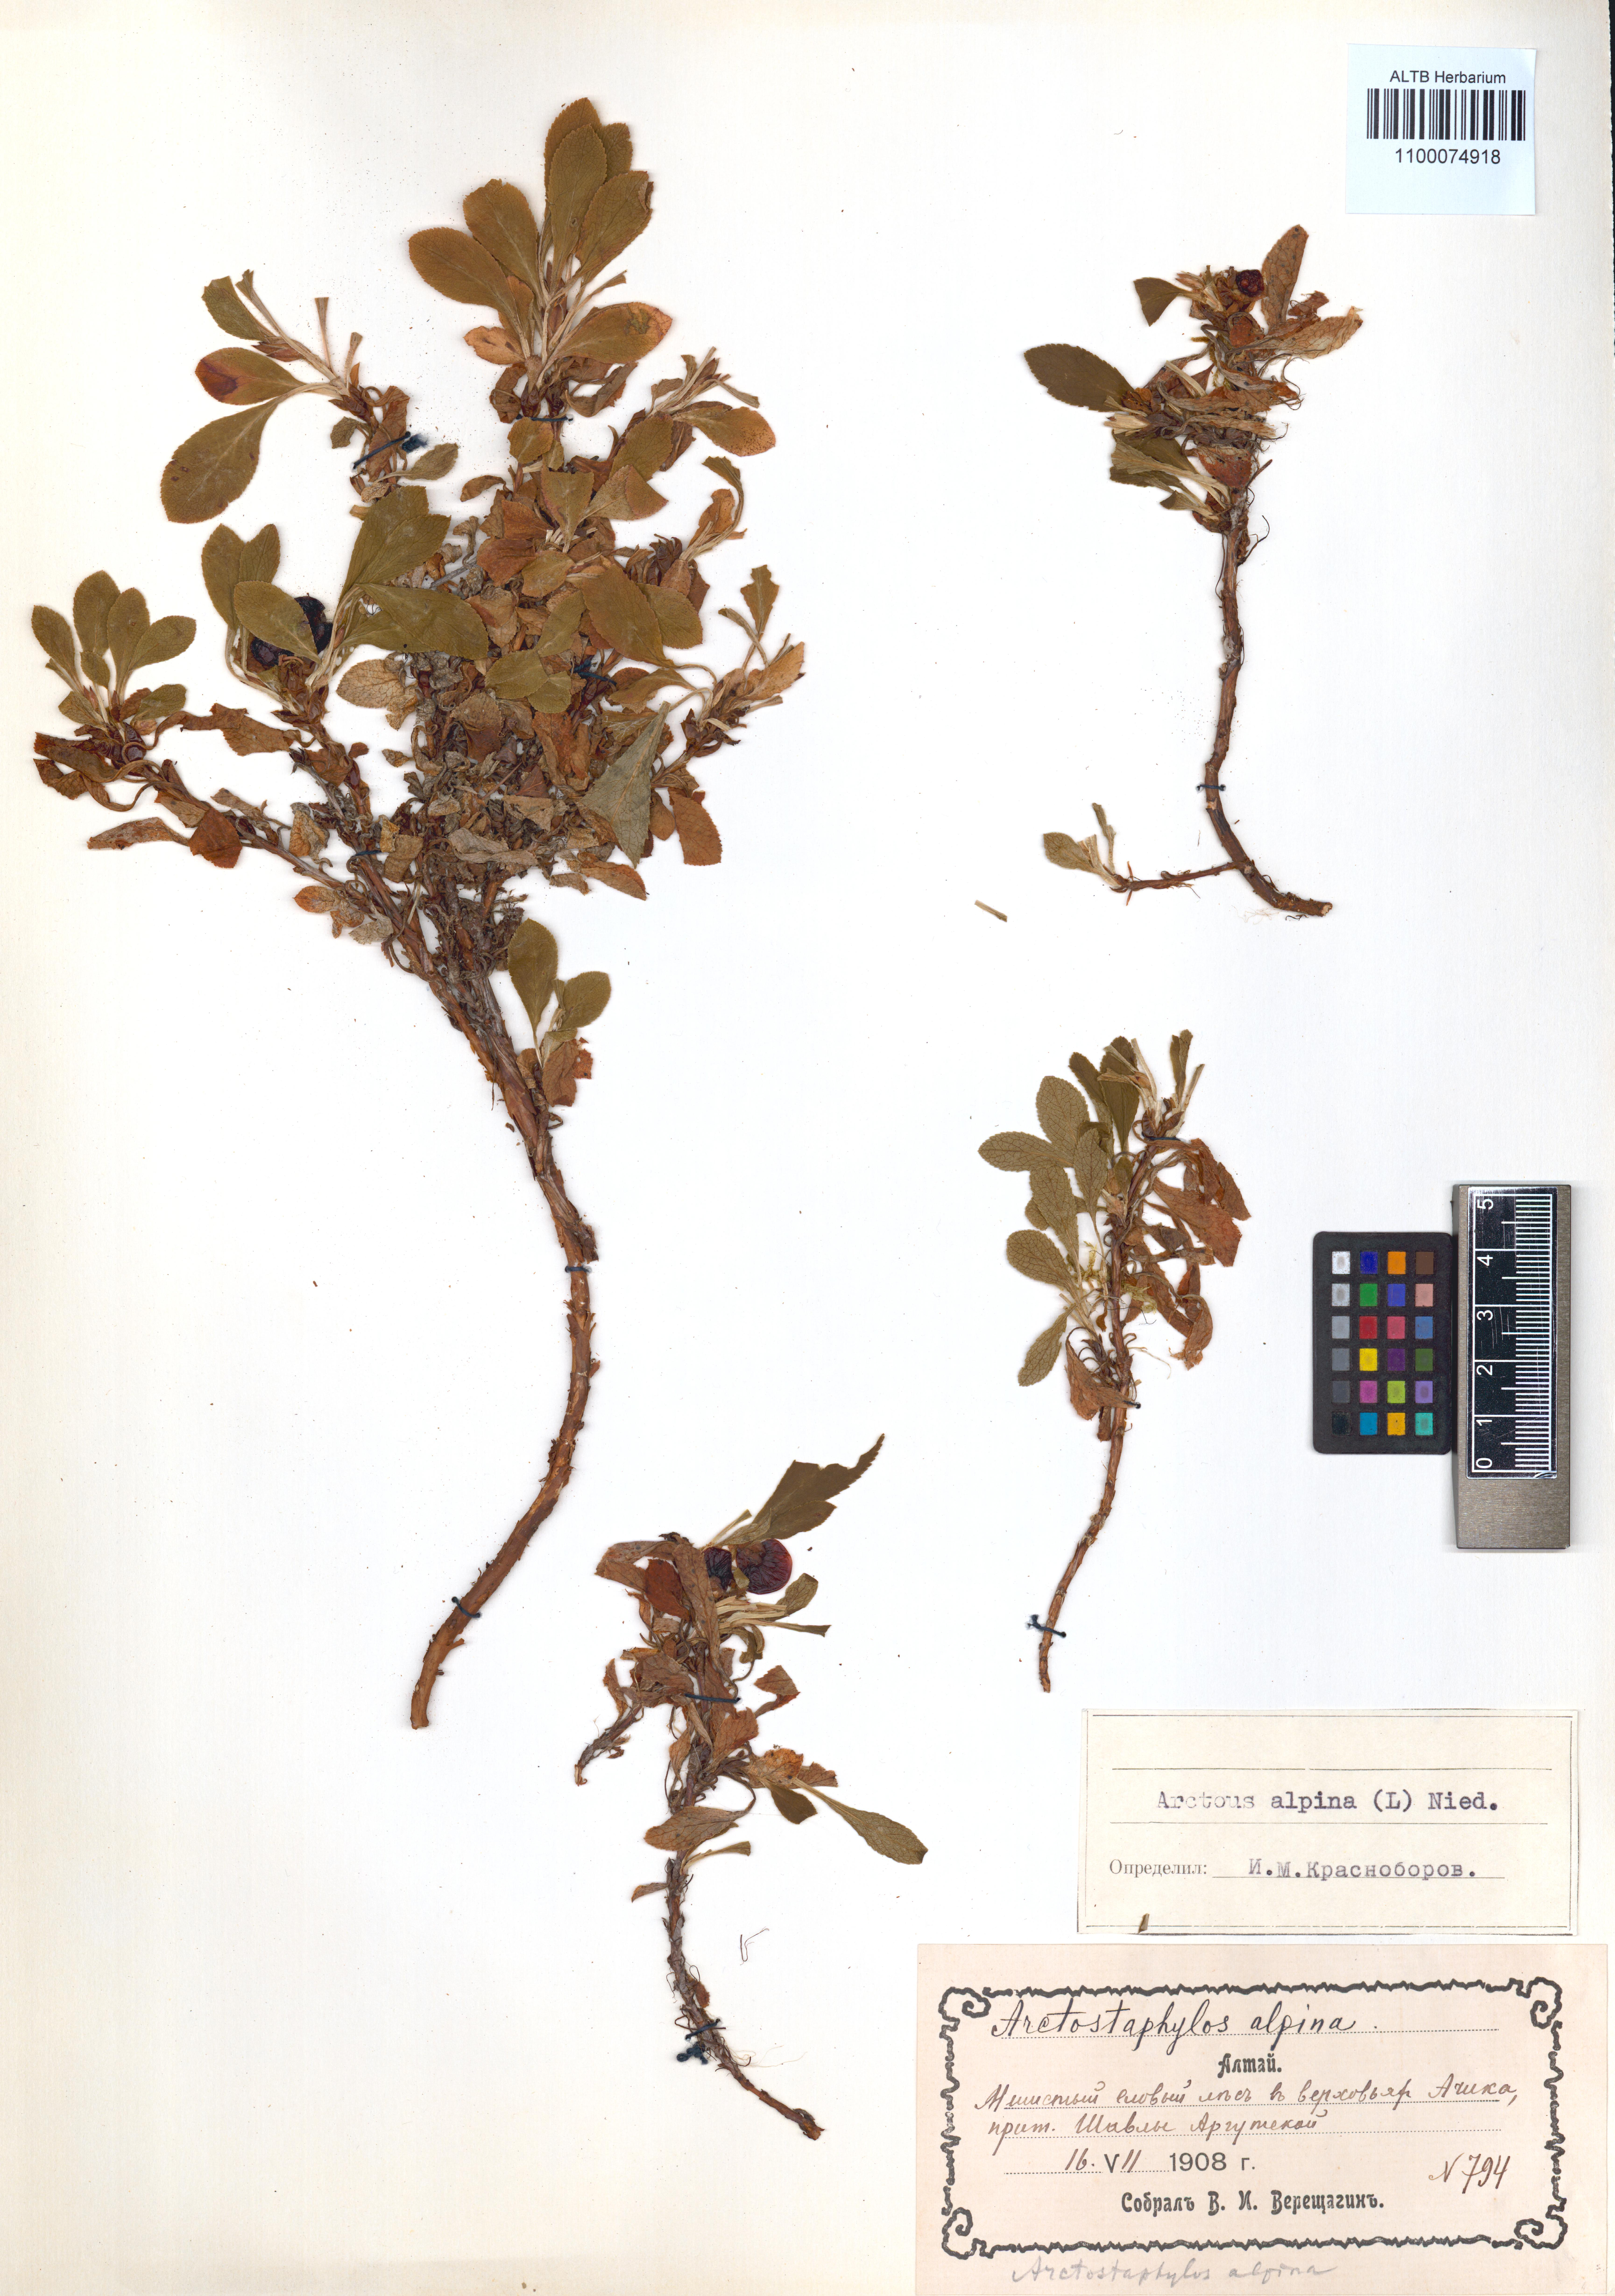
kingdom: Plantae
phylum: Tracheophyta
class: Magnoliopsida
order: Ericales
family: Ericaceae
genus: Arctostaphylos
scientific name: Arctostaphylos alpinus
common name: Alpine bearberry
